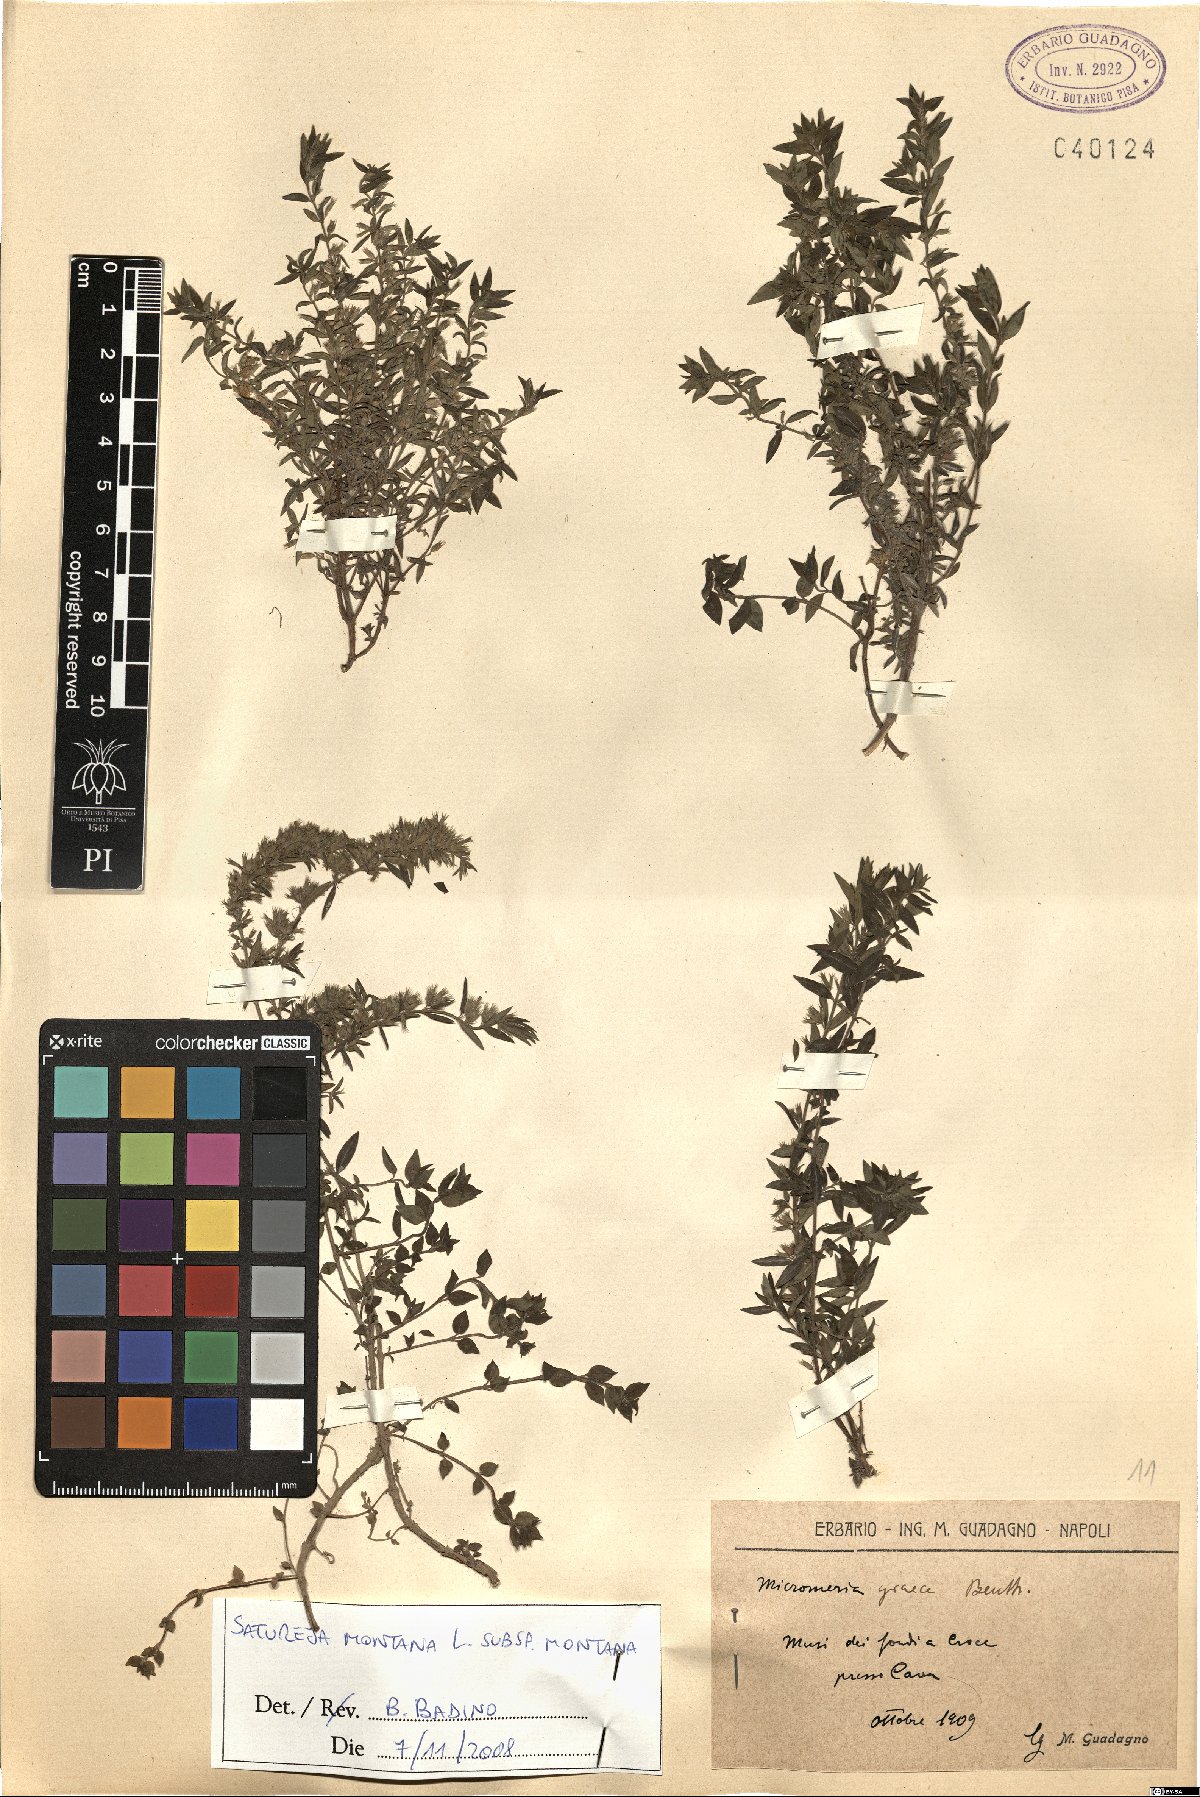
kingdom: Plantae
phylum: Tracheophyta
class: Magnoliopsida
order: Lamiales
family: Lamiaceae
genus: Satureja
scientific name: Satureja montana
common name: Winter savory
